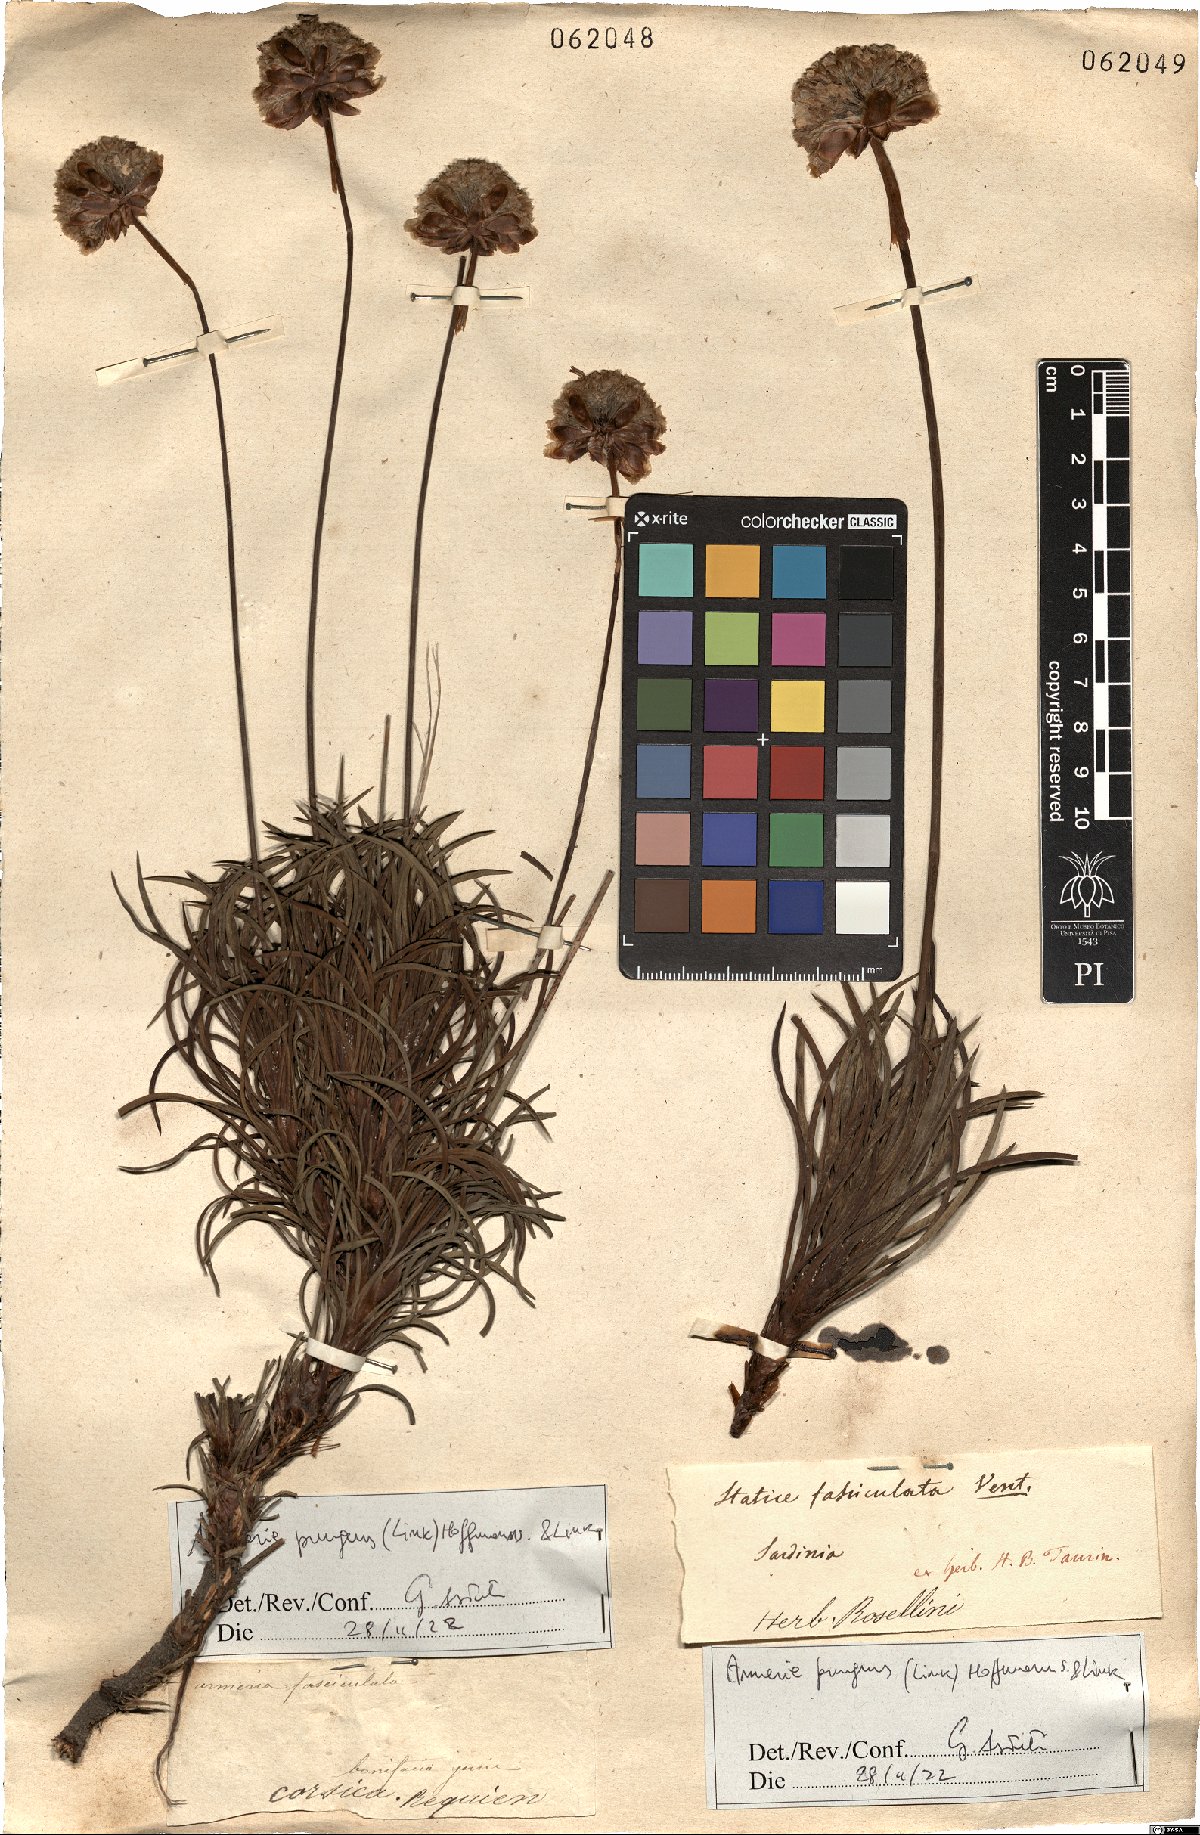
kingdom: Plantae
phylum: Tracheophyta
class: Magnoliopsida
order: Caryophyllales
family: Plumbaginaceae
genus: Armeria
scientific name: Armeria pungens
